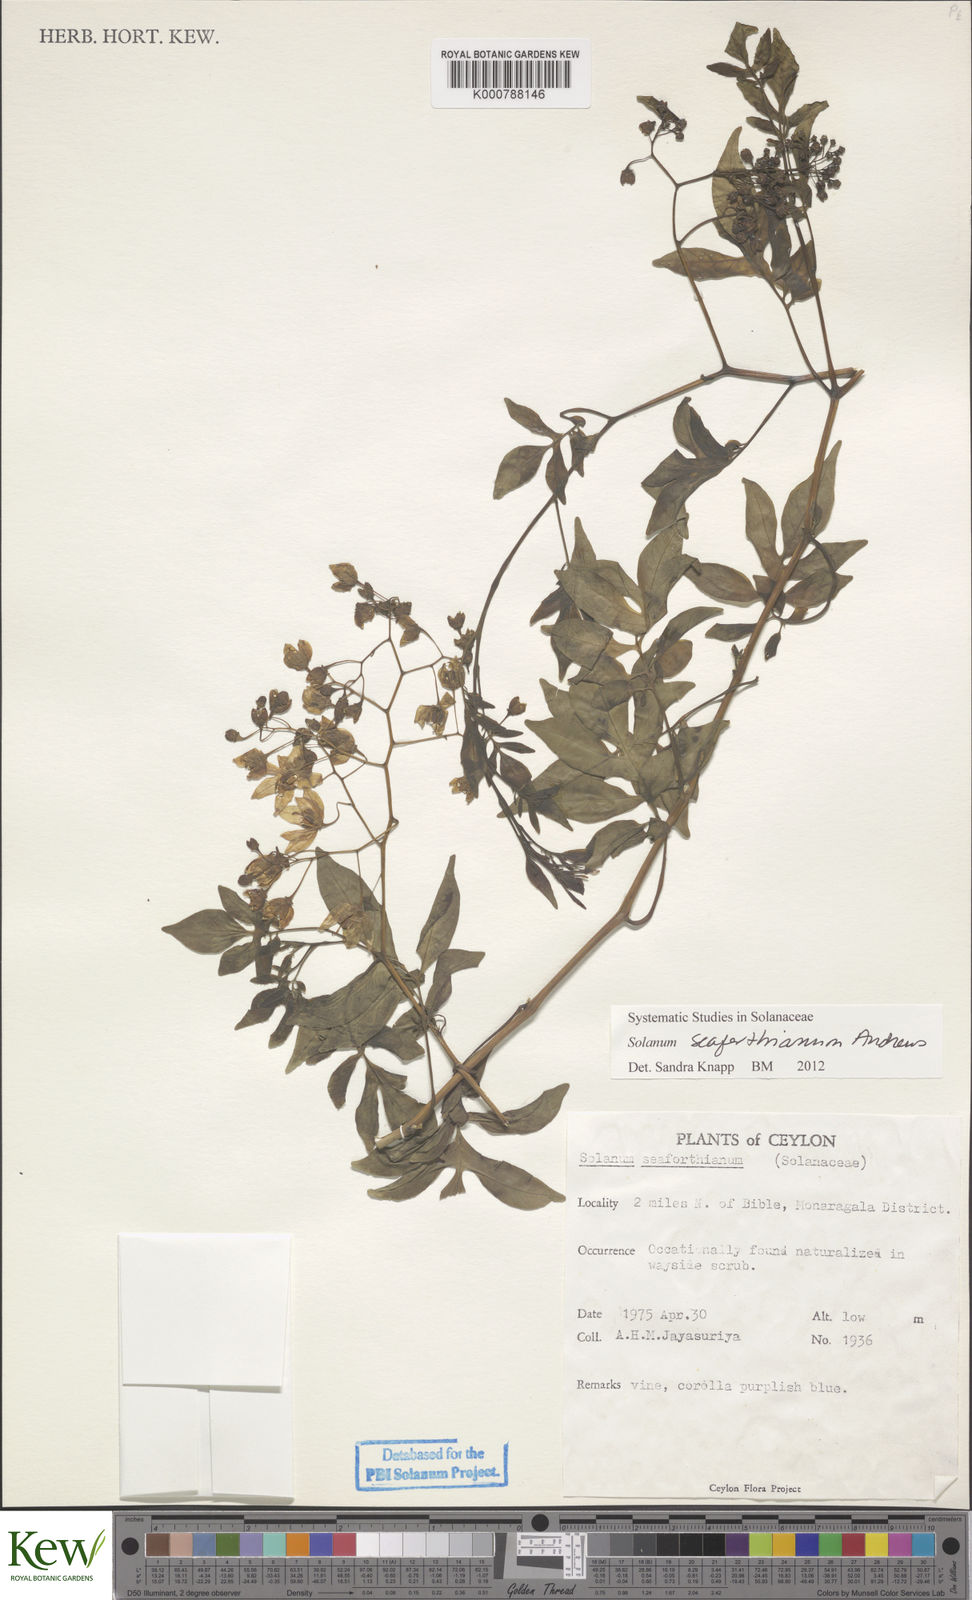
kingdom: Plantae
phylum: Tracheophyta
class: Magnoliopsida
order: Solanales
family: Solanaceae
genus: Solanum
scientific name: Solanum seaforthianum
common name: Brazilian nightshade
